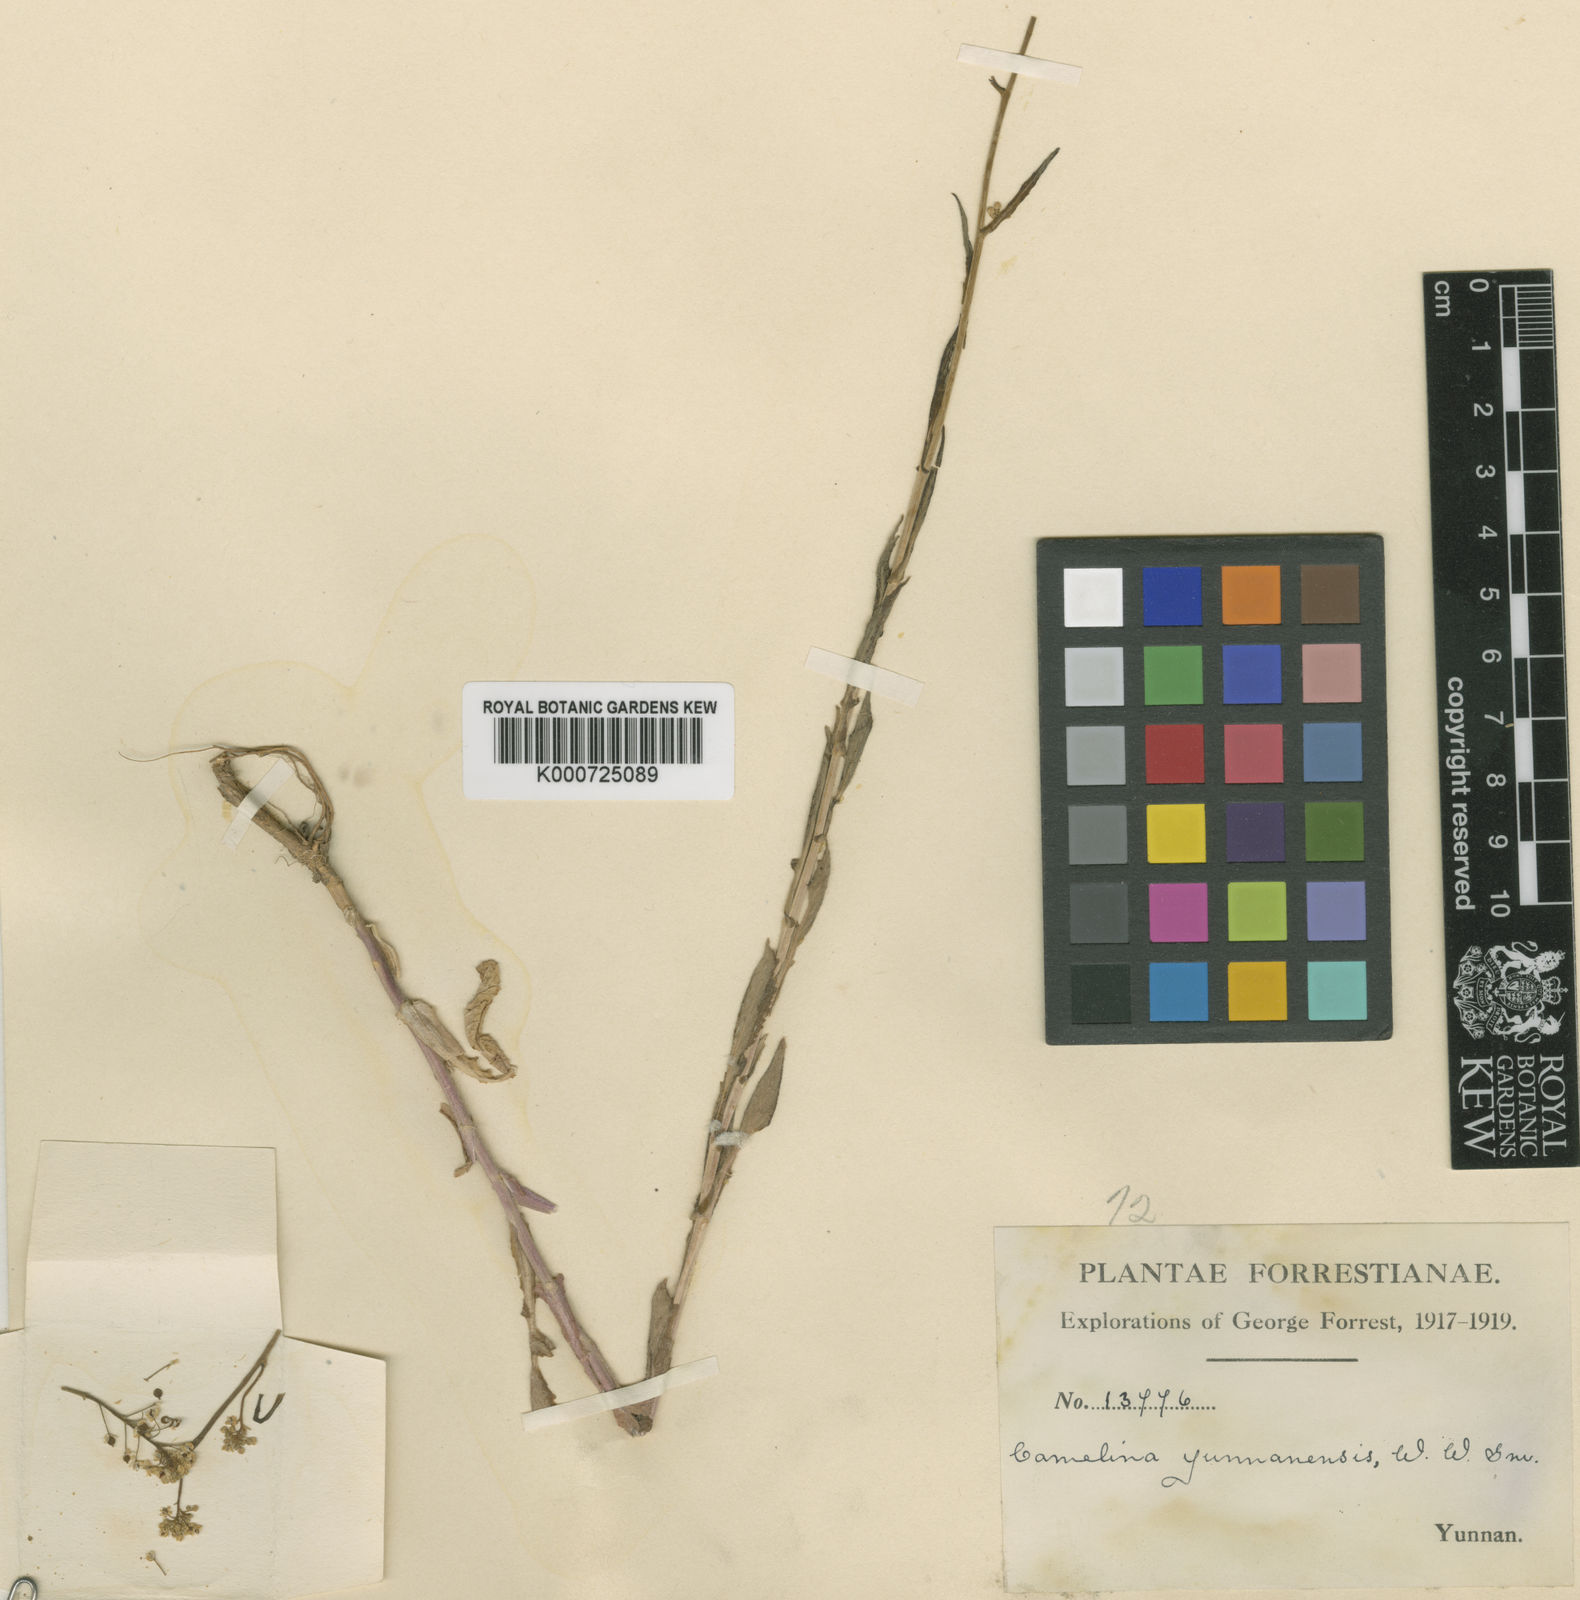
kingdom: Plantae
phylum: Tracheophyta
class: Magnoliopsida
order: Brassicales
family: Brassicaceae
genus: Rorippa
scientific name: Rorippa globosa
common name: Globe yellowcress
